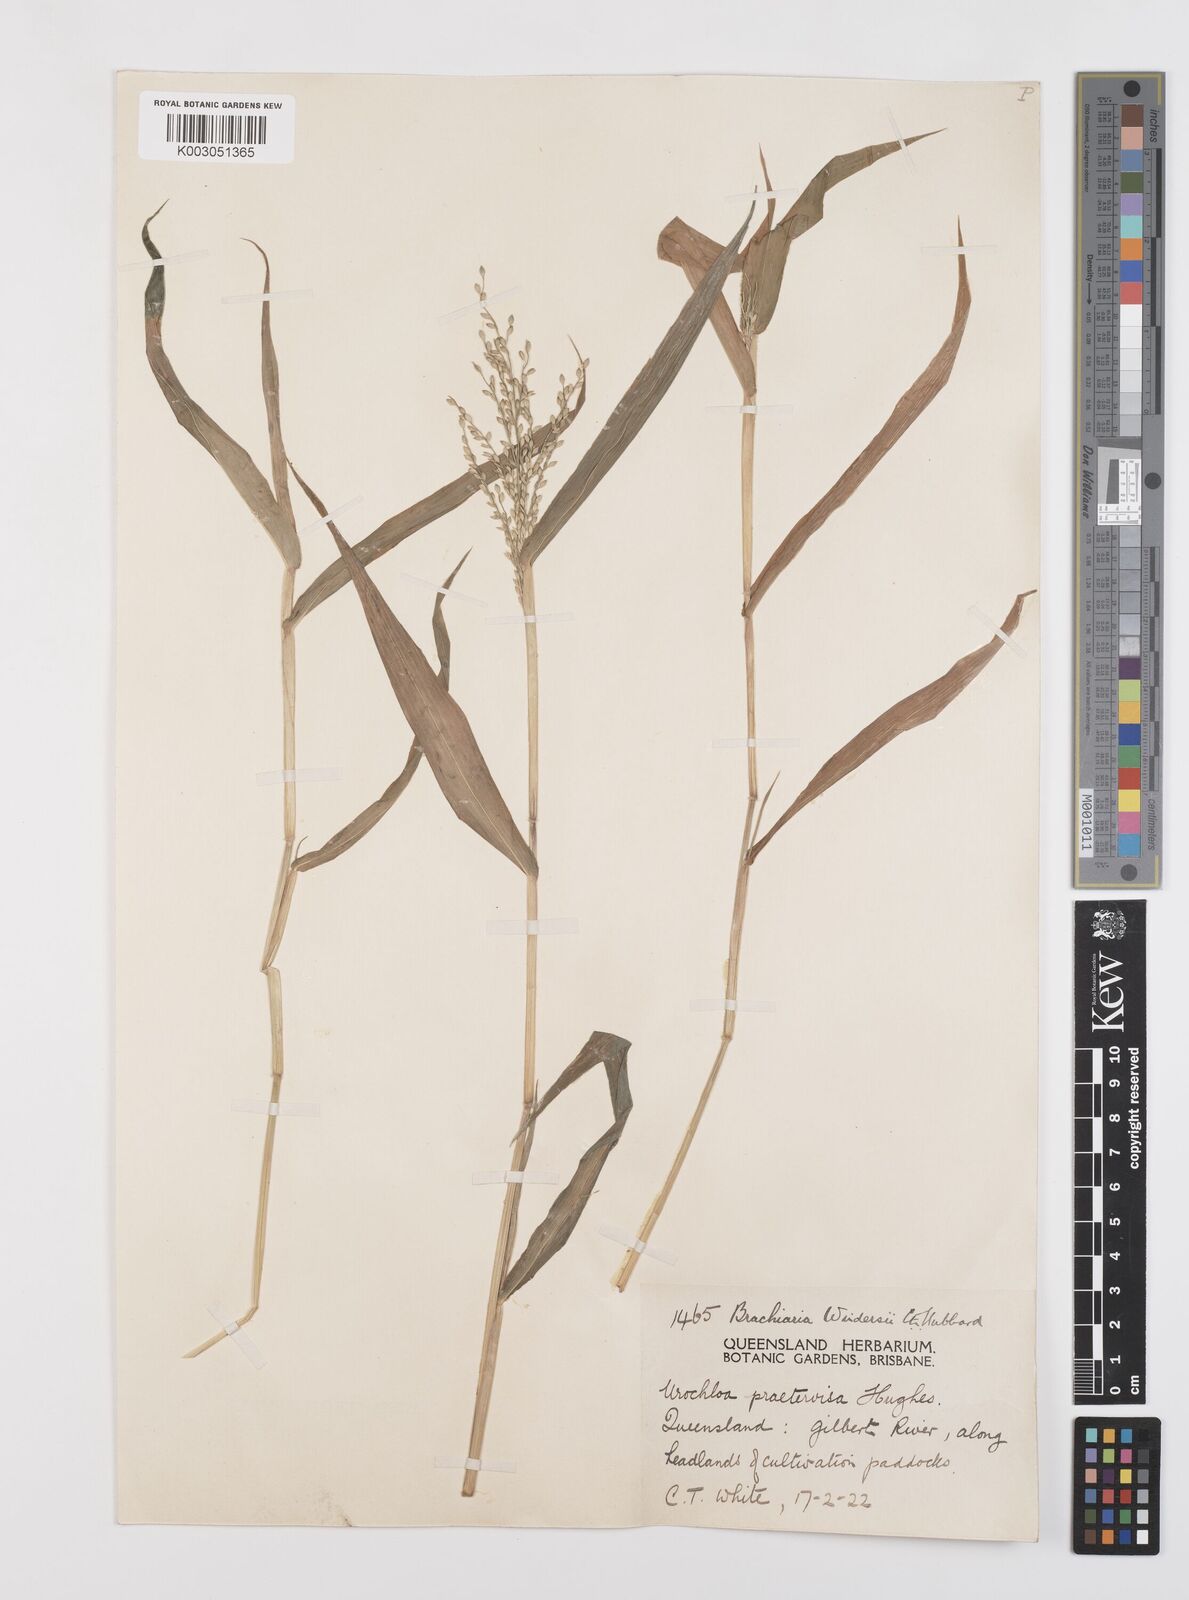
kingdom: Plantae
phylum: Tracheophyta
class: Liliopsida
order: Poales
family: Poaceae
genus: Urochloa
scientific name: Urochloa whiteana
